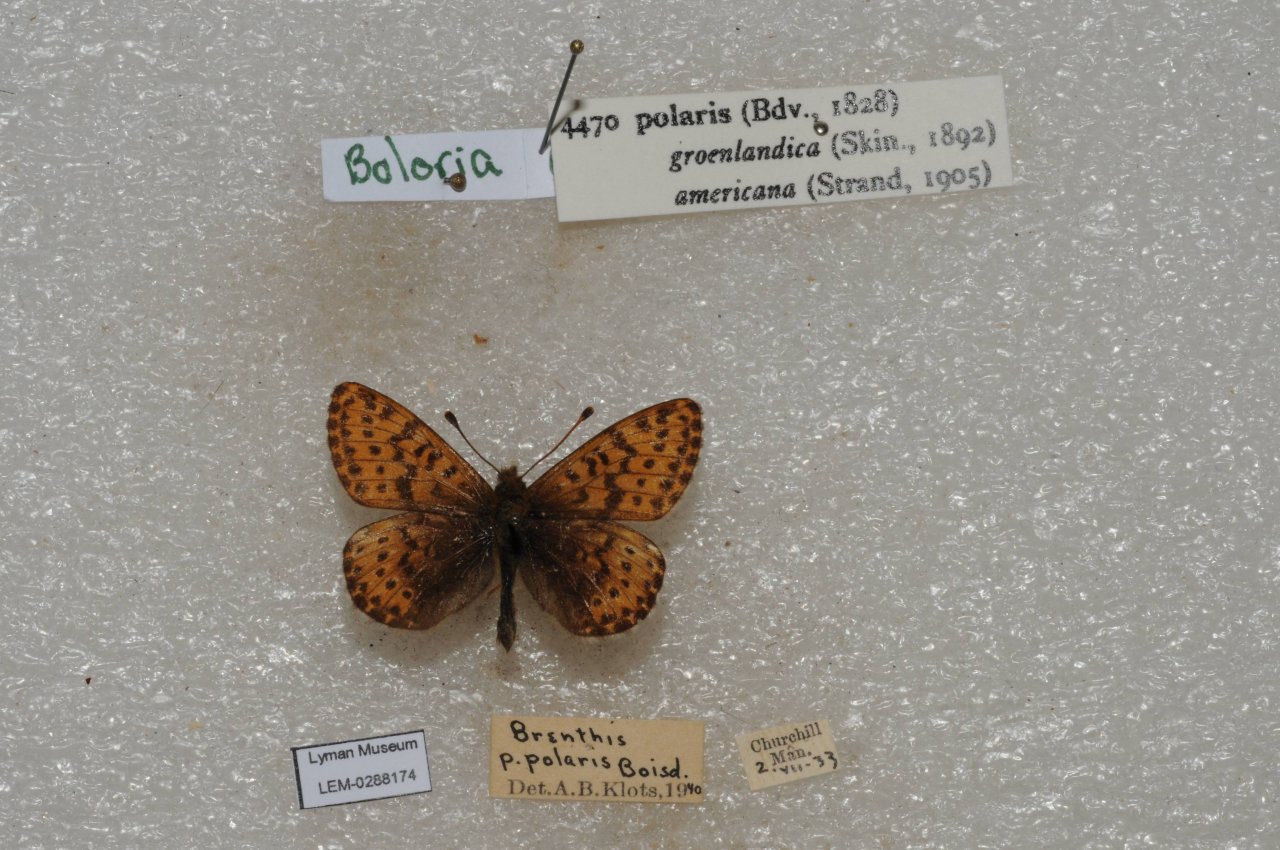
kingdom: Animalia
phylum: Arthropoda
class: Insecta
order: Lepidoptera
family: Nymphalidae
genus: Clossiana
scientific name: Clossiana polaris
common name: Polaris Fritillary
